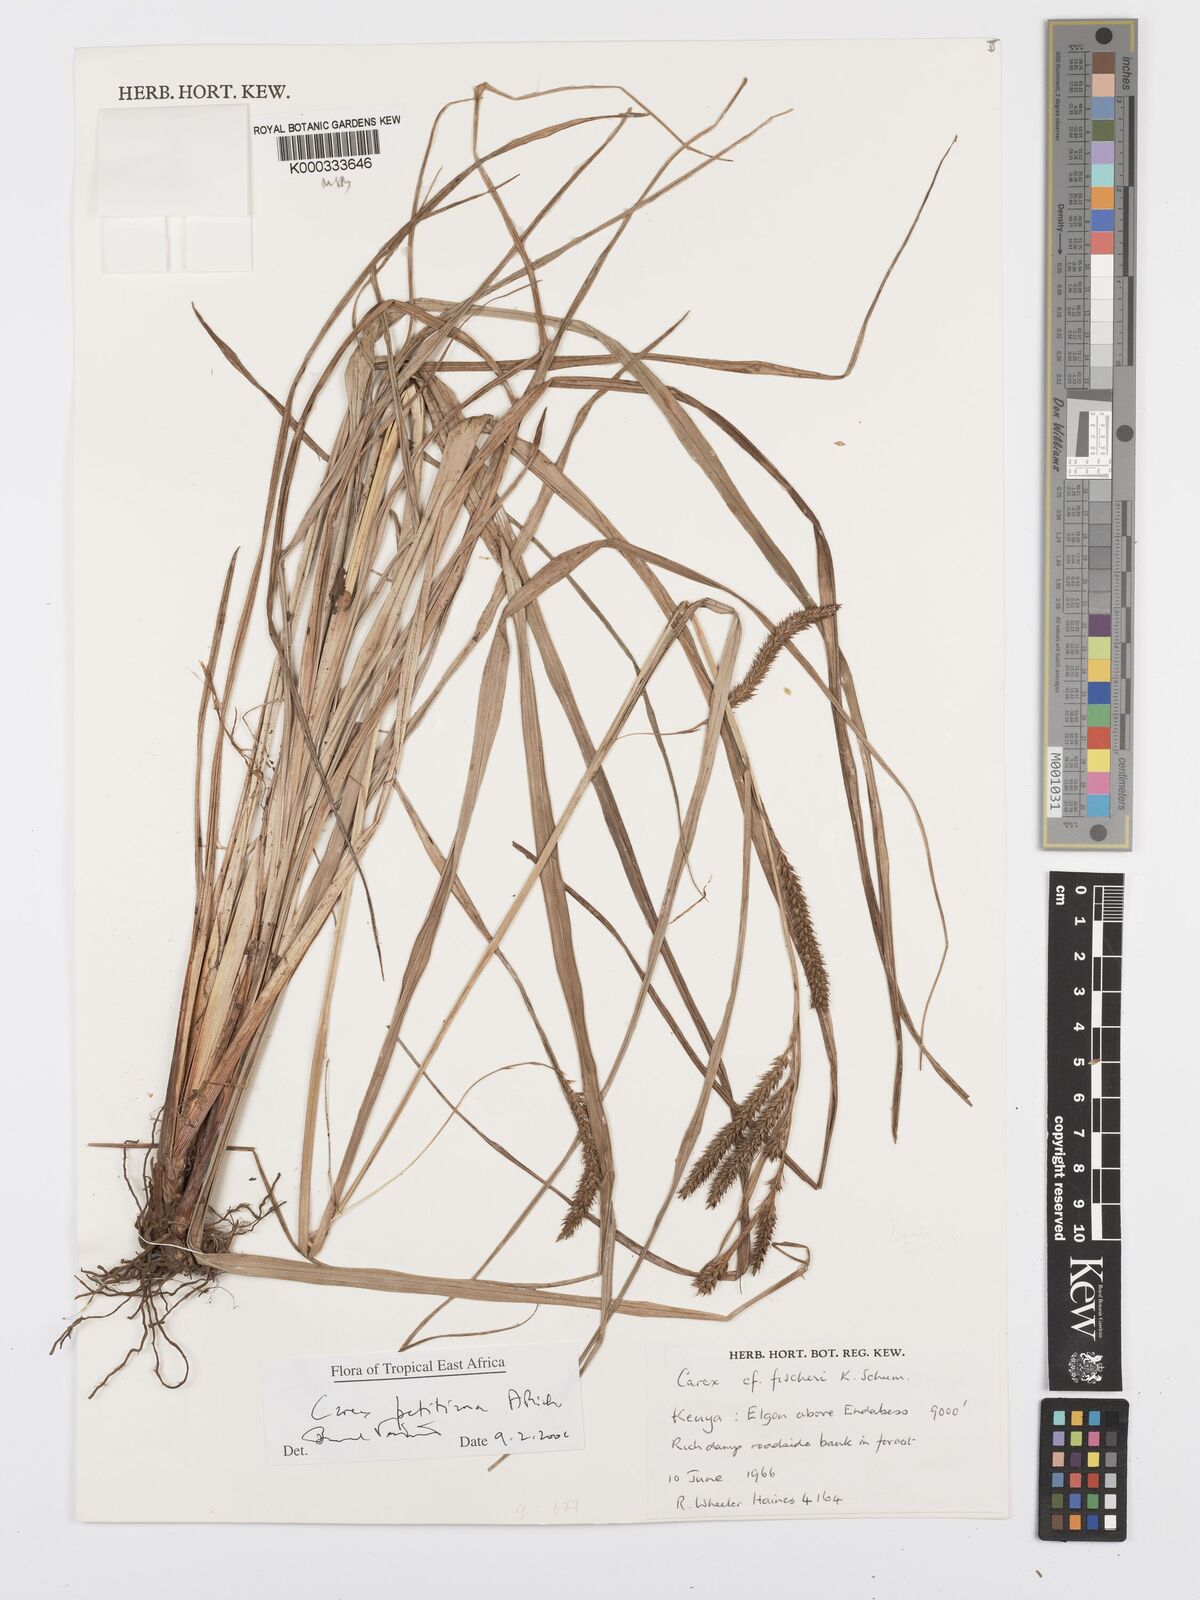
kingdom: Plantae
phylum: Tracheophyta
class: Liliopsida
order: Poales
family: Cyperaceae
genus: Carex
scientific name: Carex petitiana
